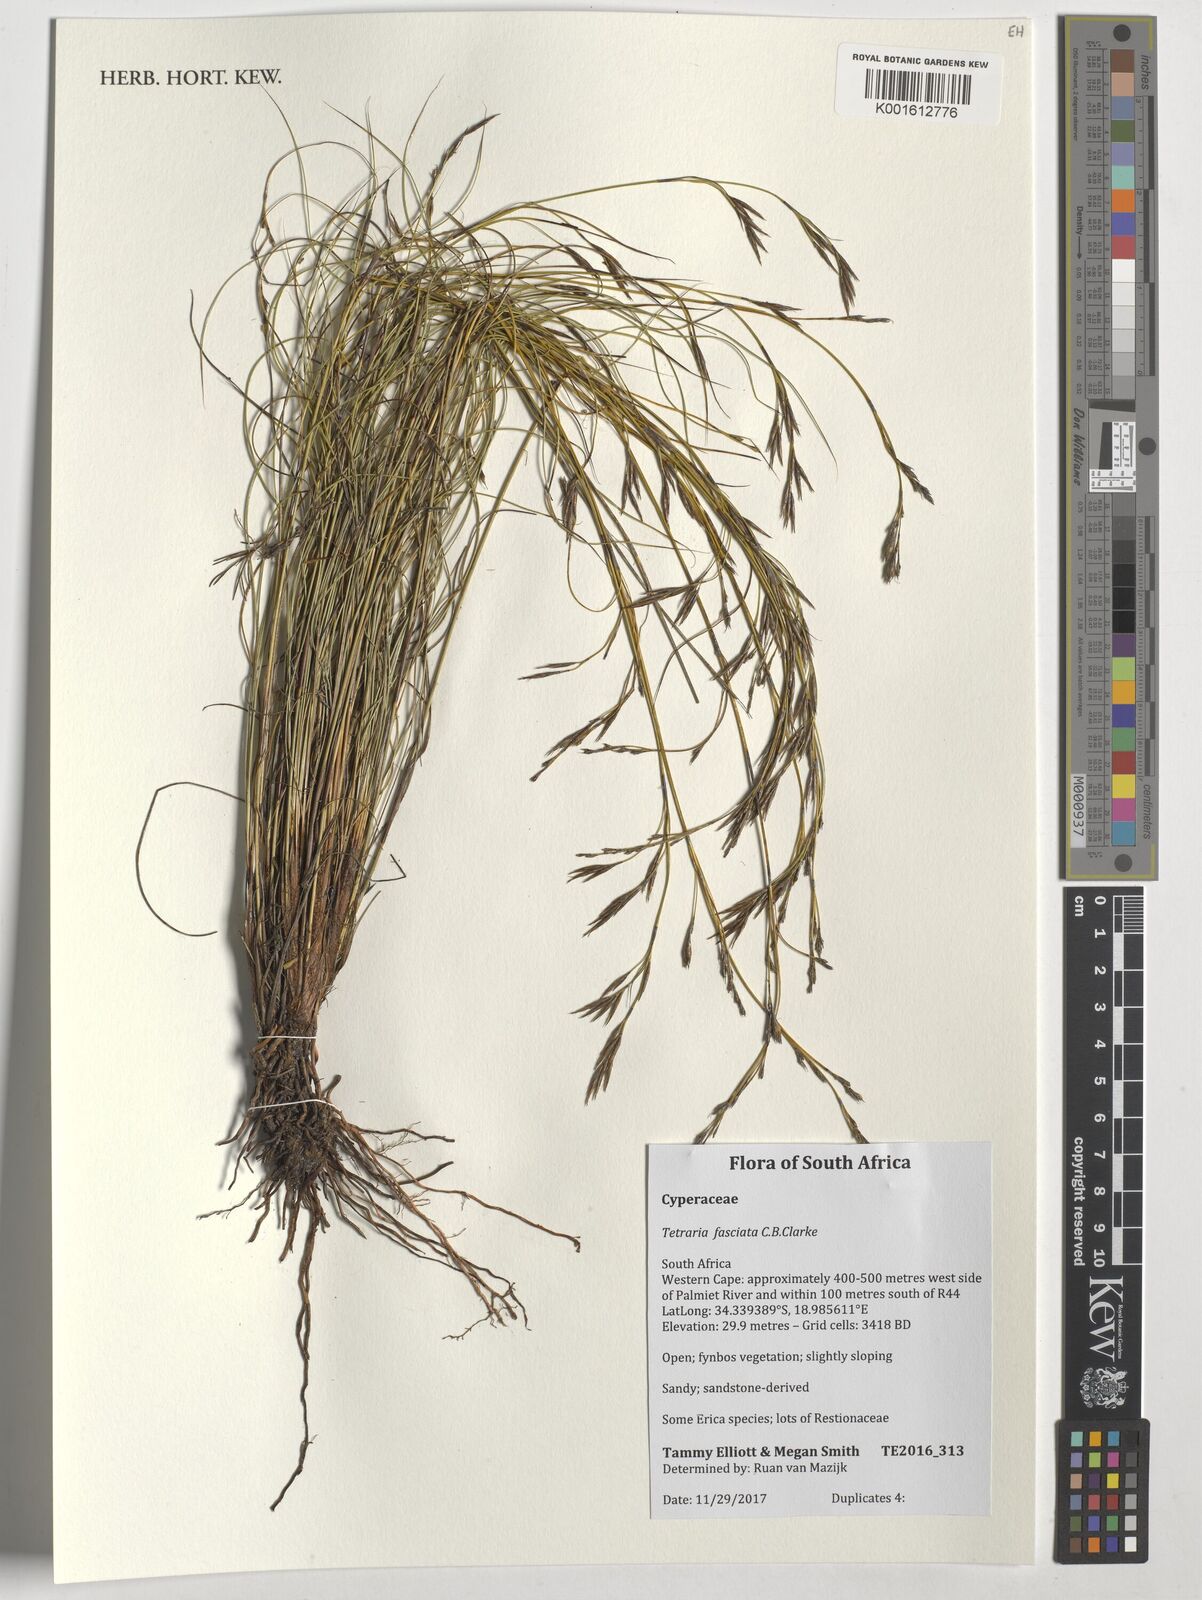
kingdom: Plantae
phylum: Tracheophyta
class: Liliopsida
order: Poales
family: Cyperaceae
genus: Tetraria
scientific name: Tetraria fasciata
